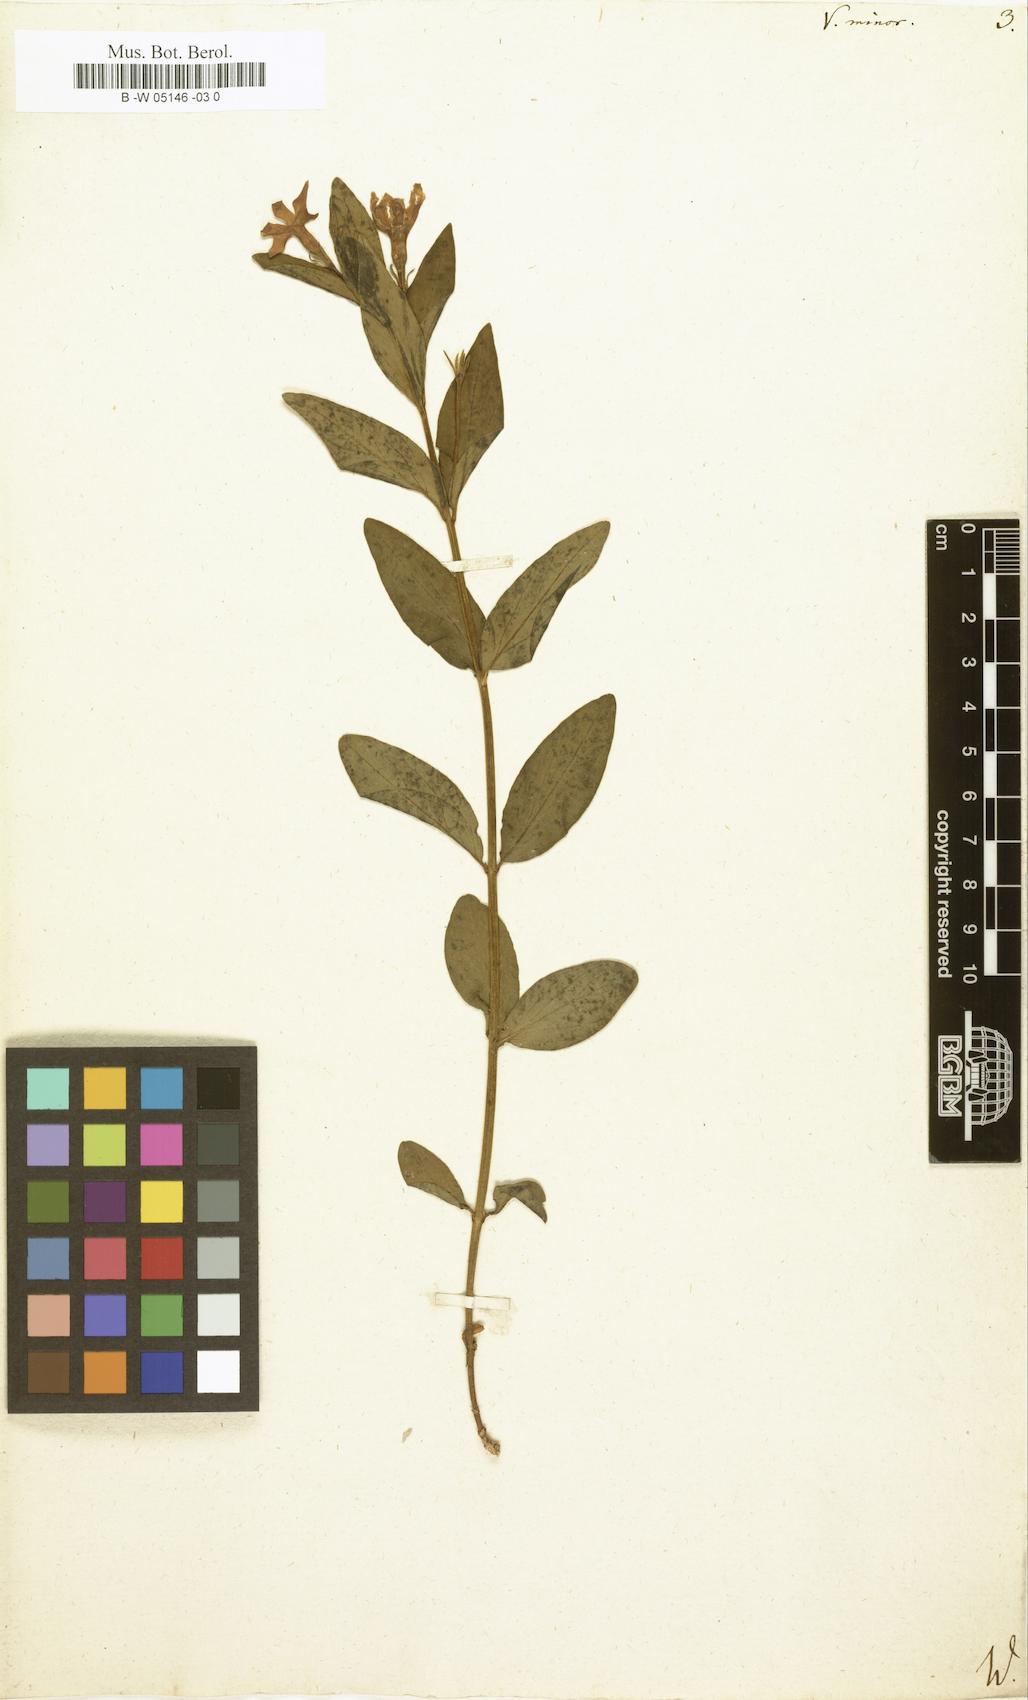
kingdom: Plantae
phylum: Tracheophyta
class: Magnoliopsida
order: Gentianales
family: Apocynaceae
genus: Vinca
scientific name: Vinca minor
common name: Lesser periwinkle
